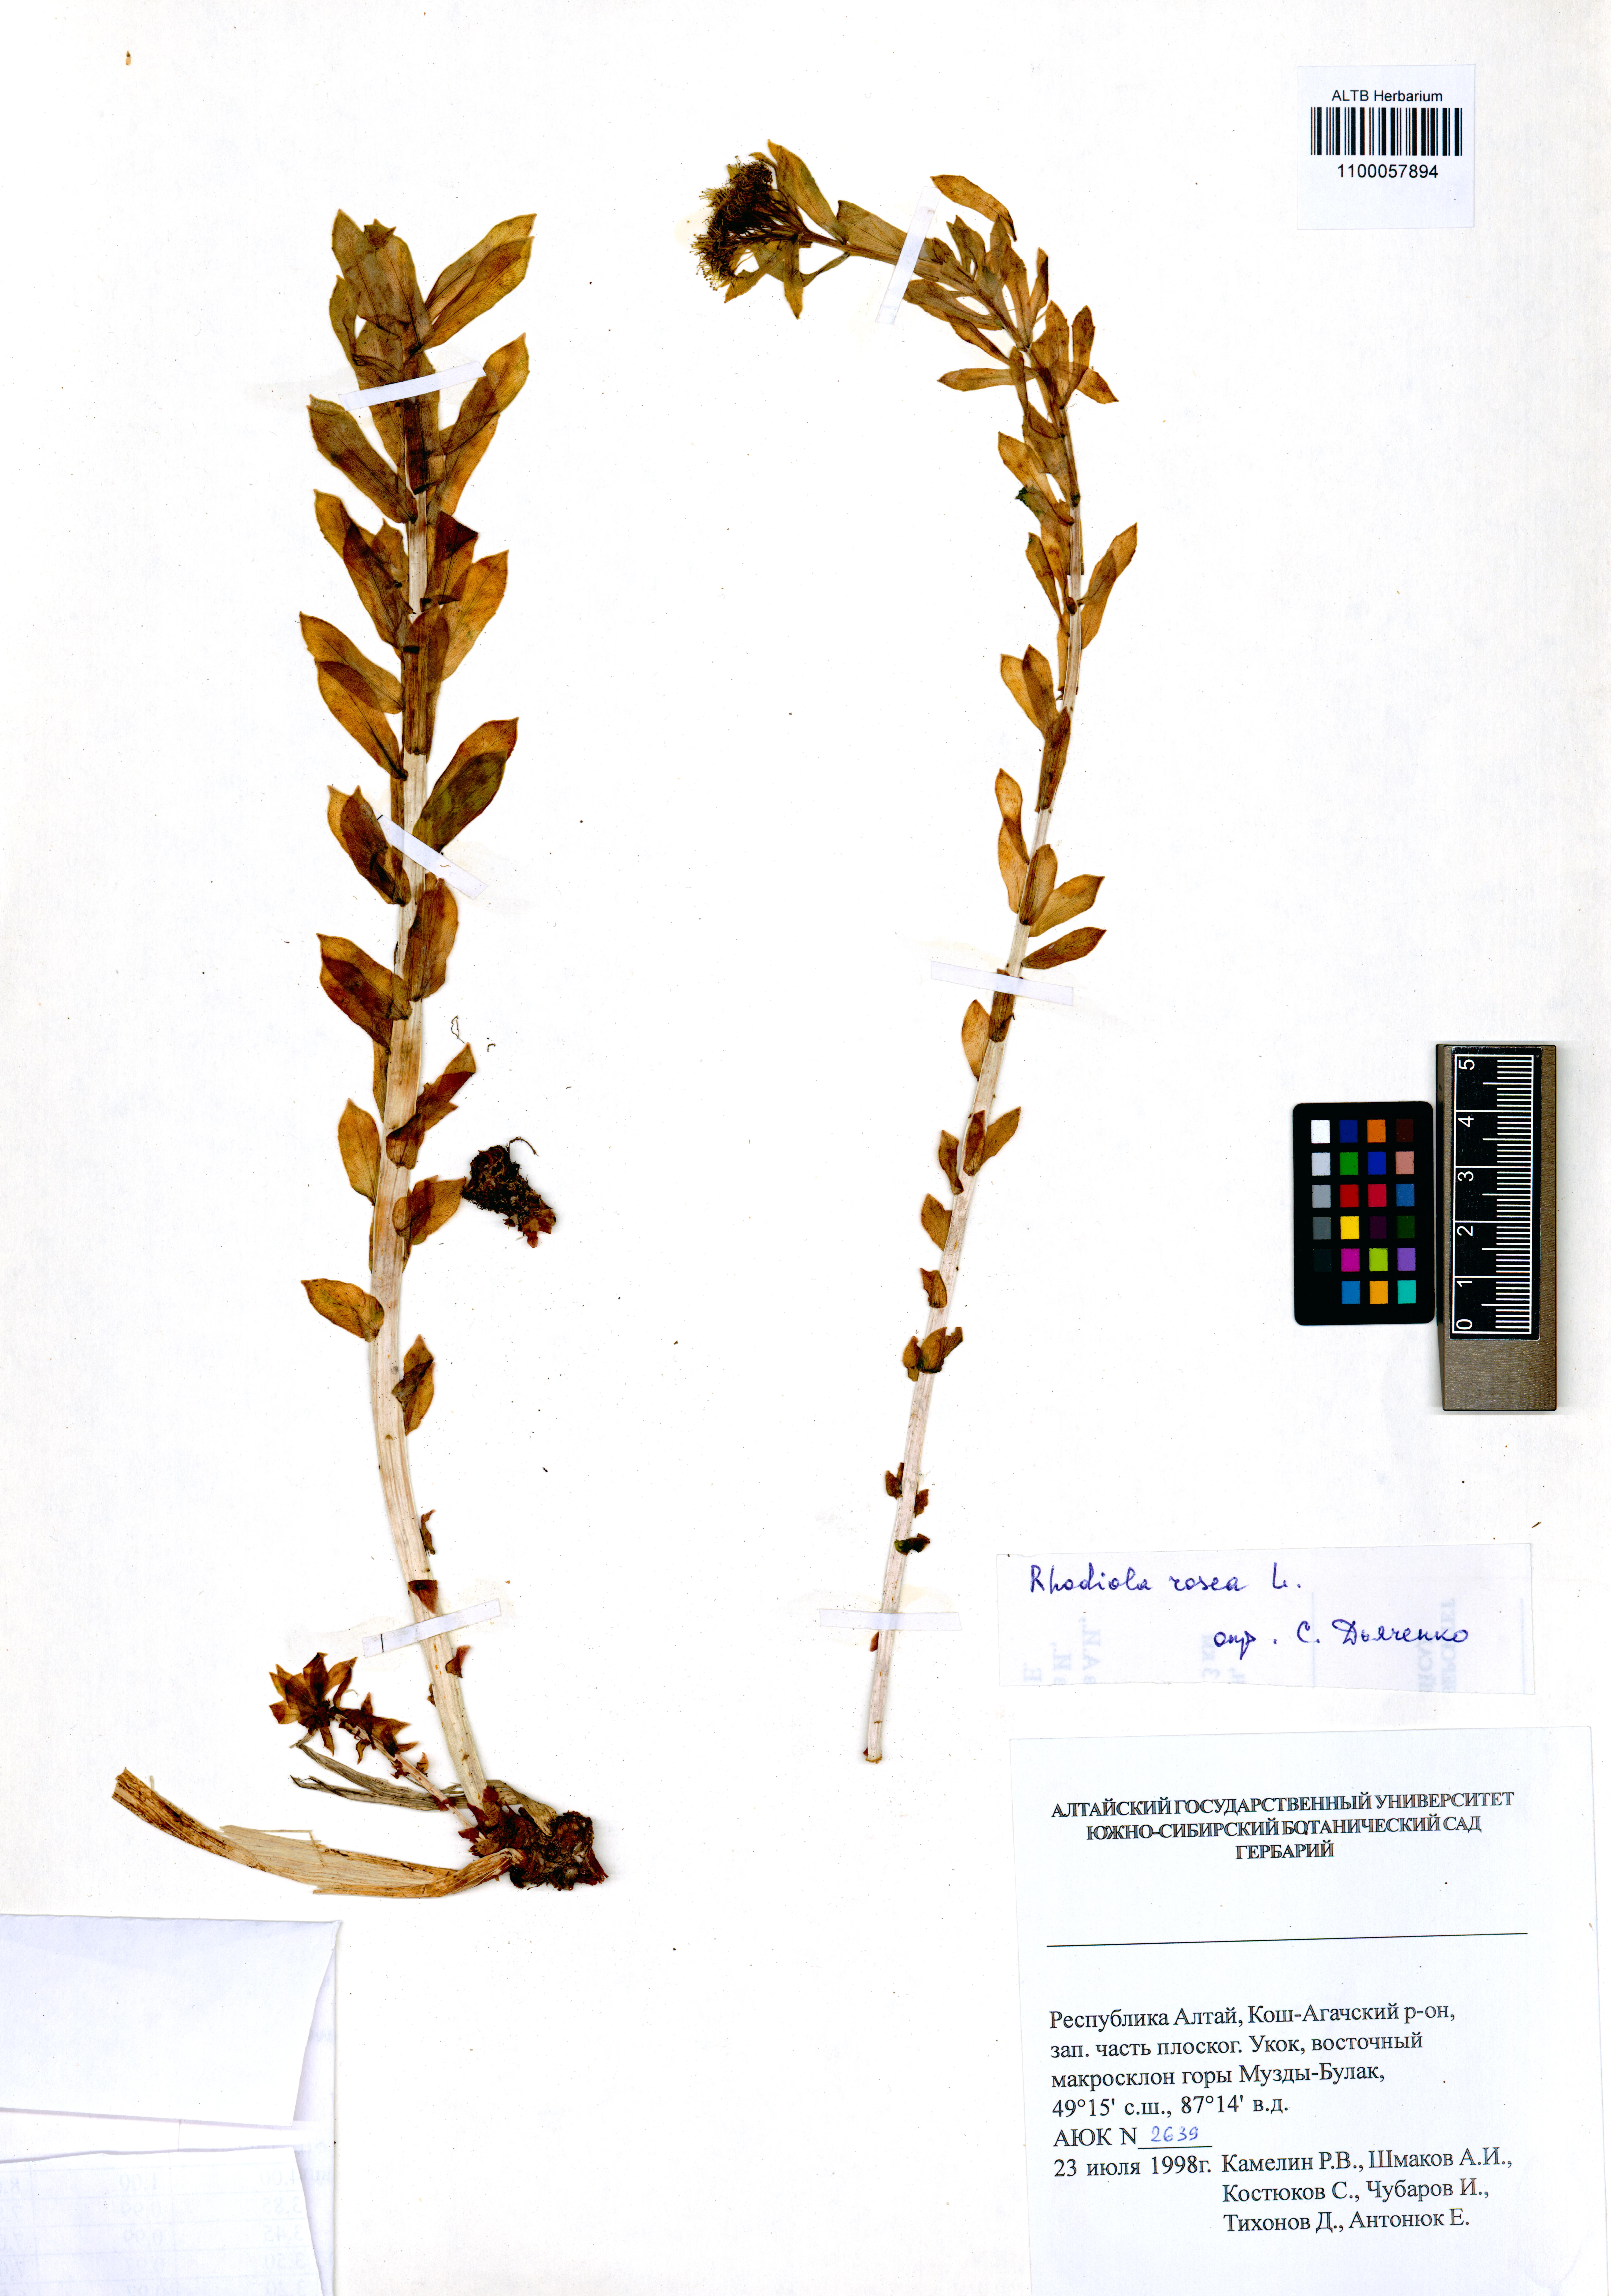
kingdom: Plantae
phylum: Tracheophyta
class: Magnoliopsida
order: Saxifragales
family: Crassulaceae
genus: Rhodiola
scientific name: Rhodiola rosea
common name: Roseroot
